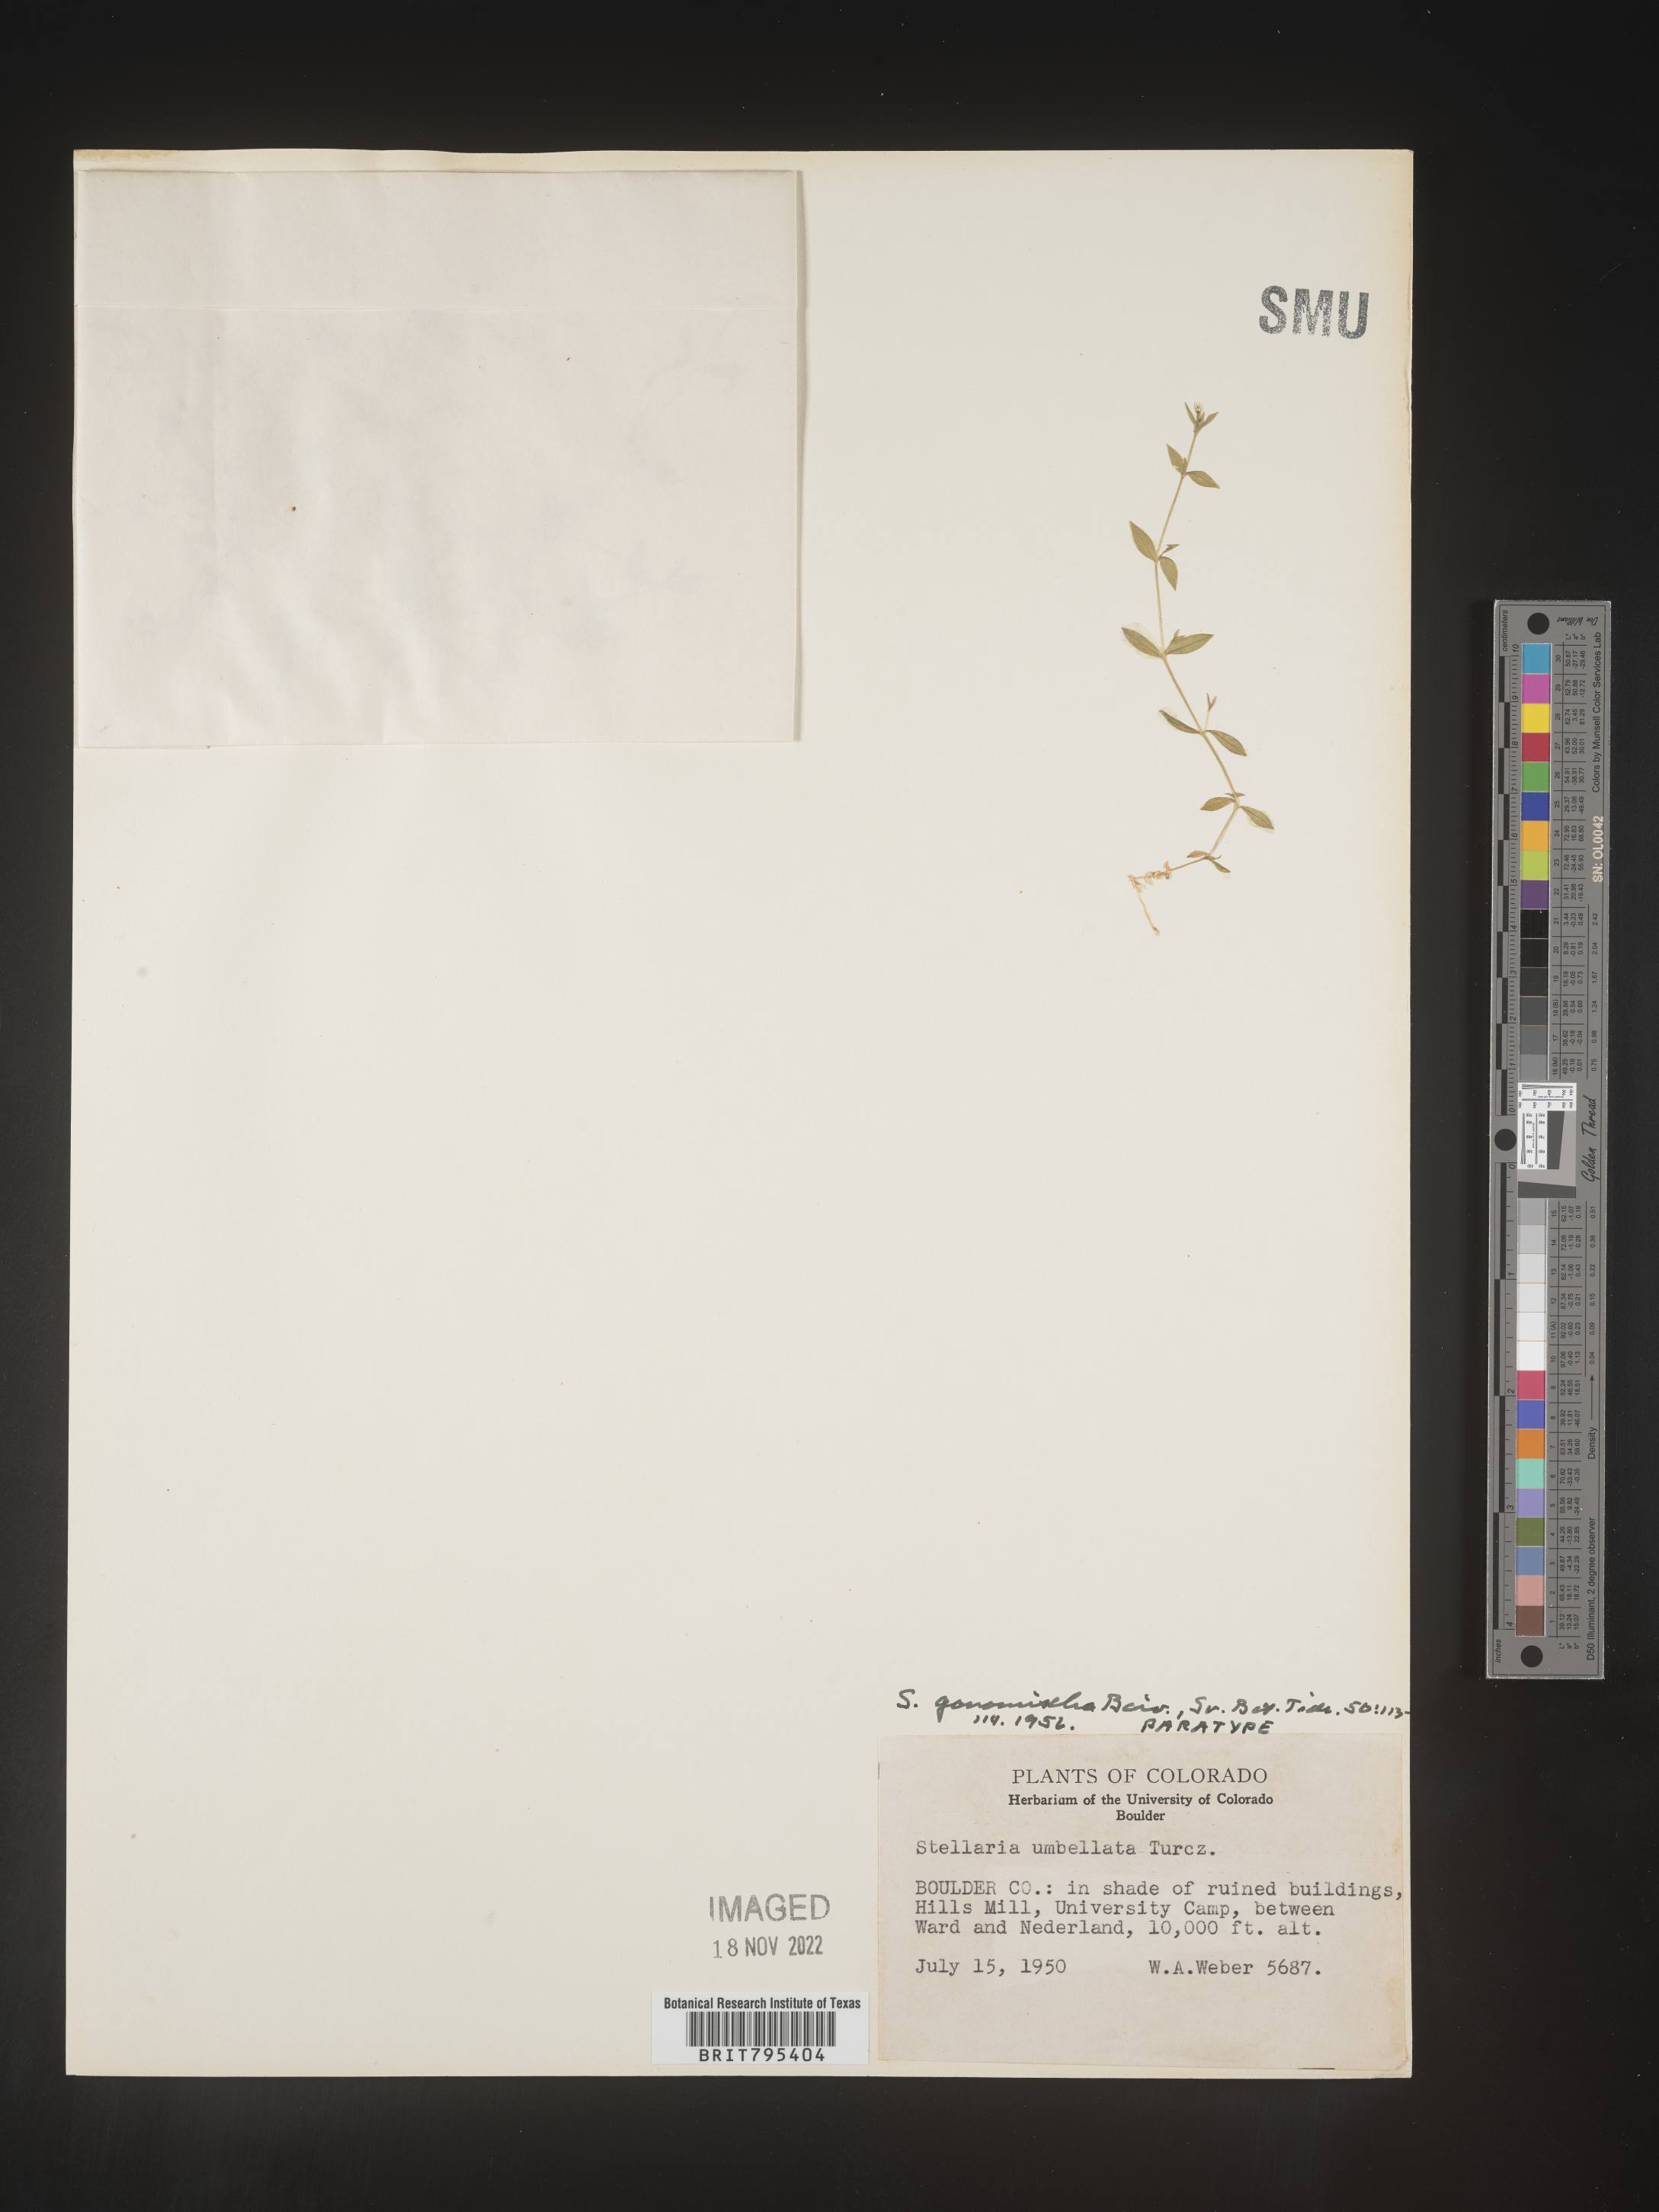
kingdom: Plantae
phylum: Tracheophyta
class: Magnoliopsida
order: Caryophyllales
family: Caryophyllaceae
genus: Stellaria
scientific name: Stellaria
